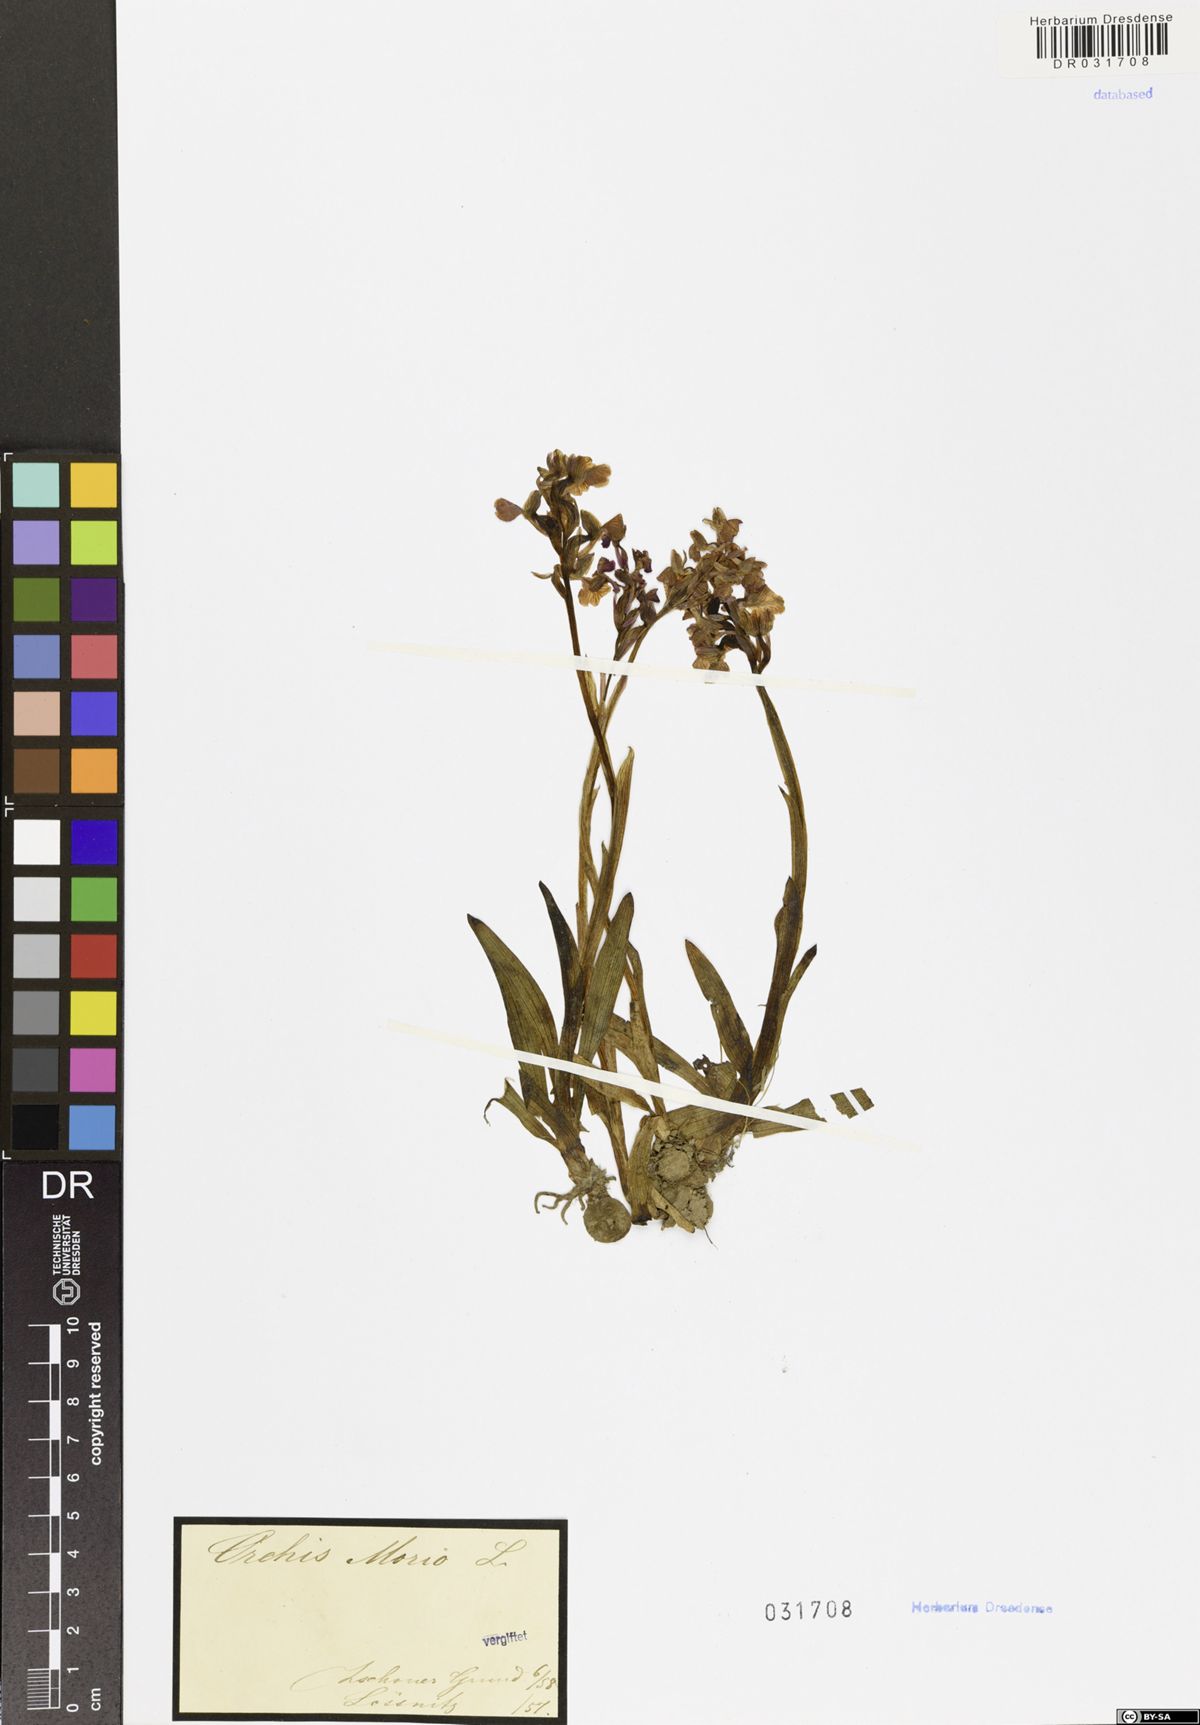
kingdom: Plantae
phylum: Tracheophyta
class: Liliopsida
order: Asparagales
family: Orchidaceae
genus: Anacamptis
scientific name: Anacamptis morio
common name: Green-winged orchid
